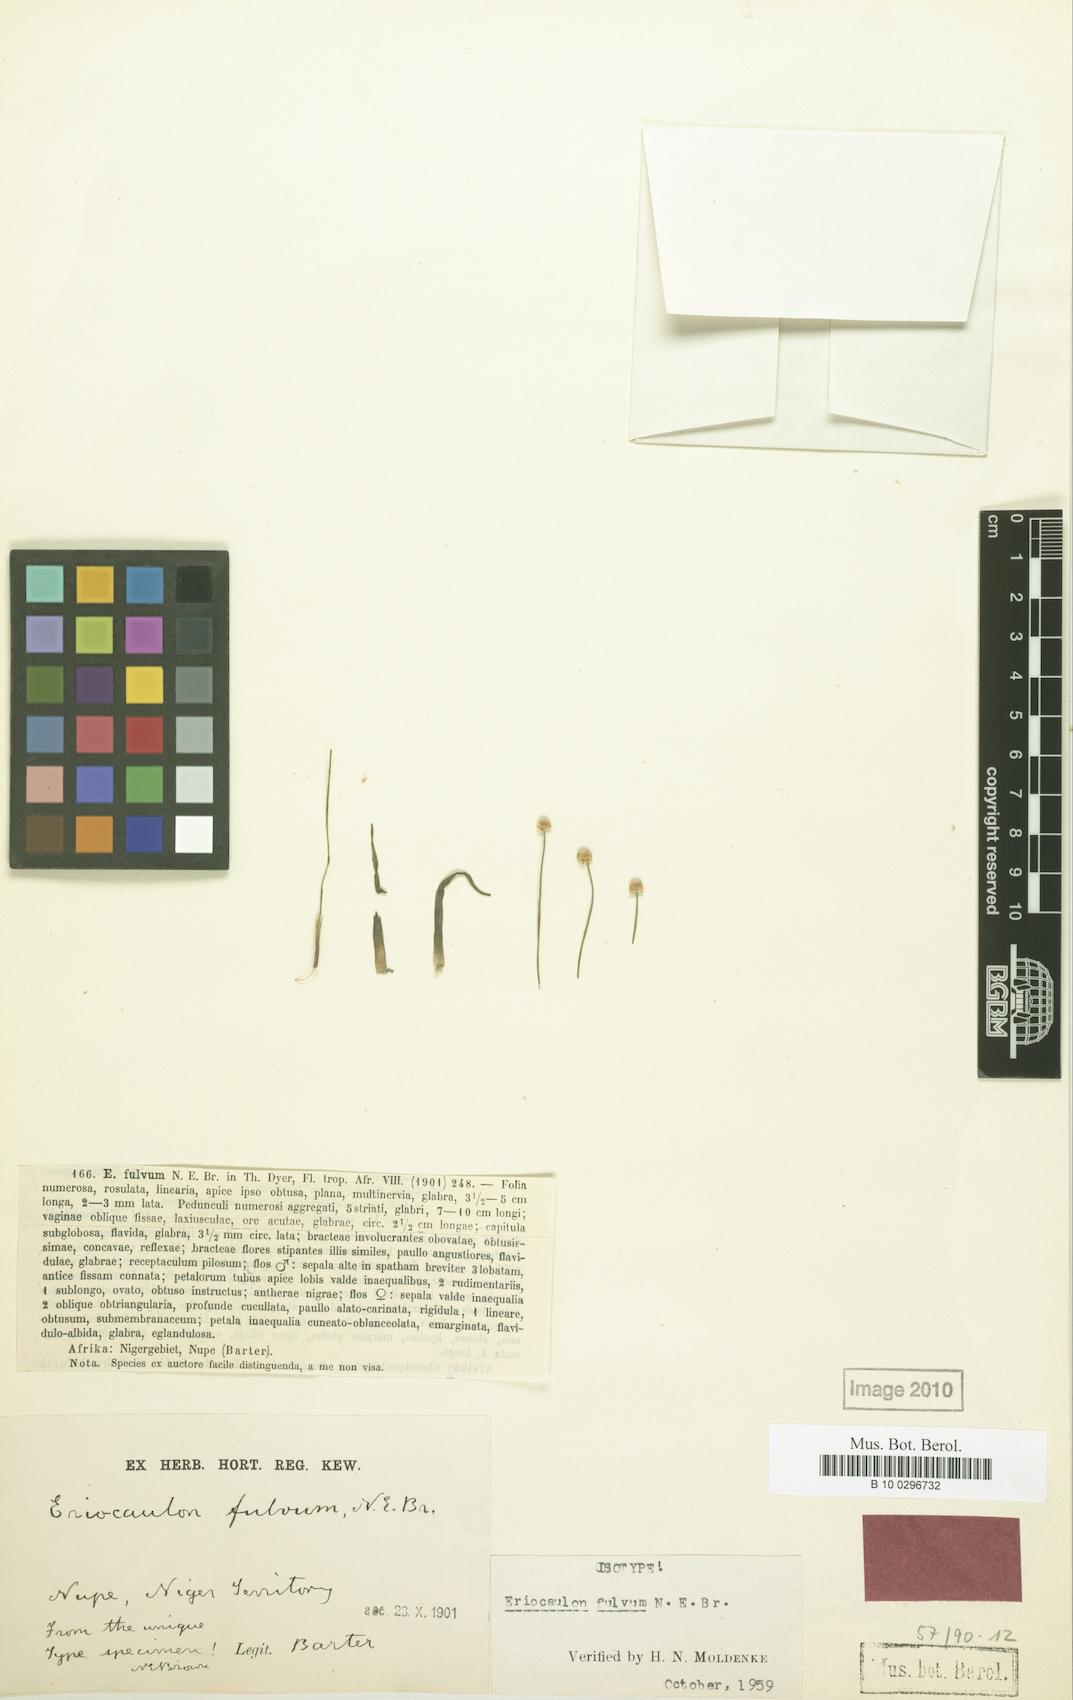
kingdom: Plantae
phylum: Tracheophyta
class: Liliopsida
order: Poales
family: Eriocaulaceae
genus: Eriocaulon
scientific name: Eriocaulon fulvum
